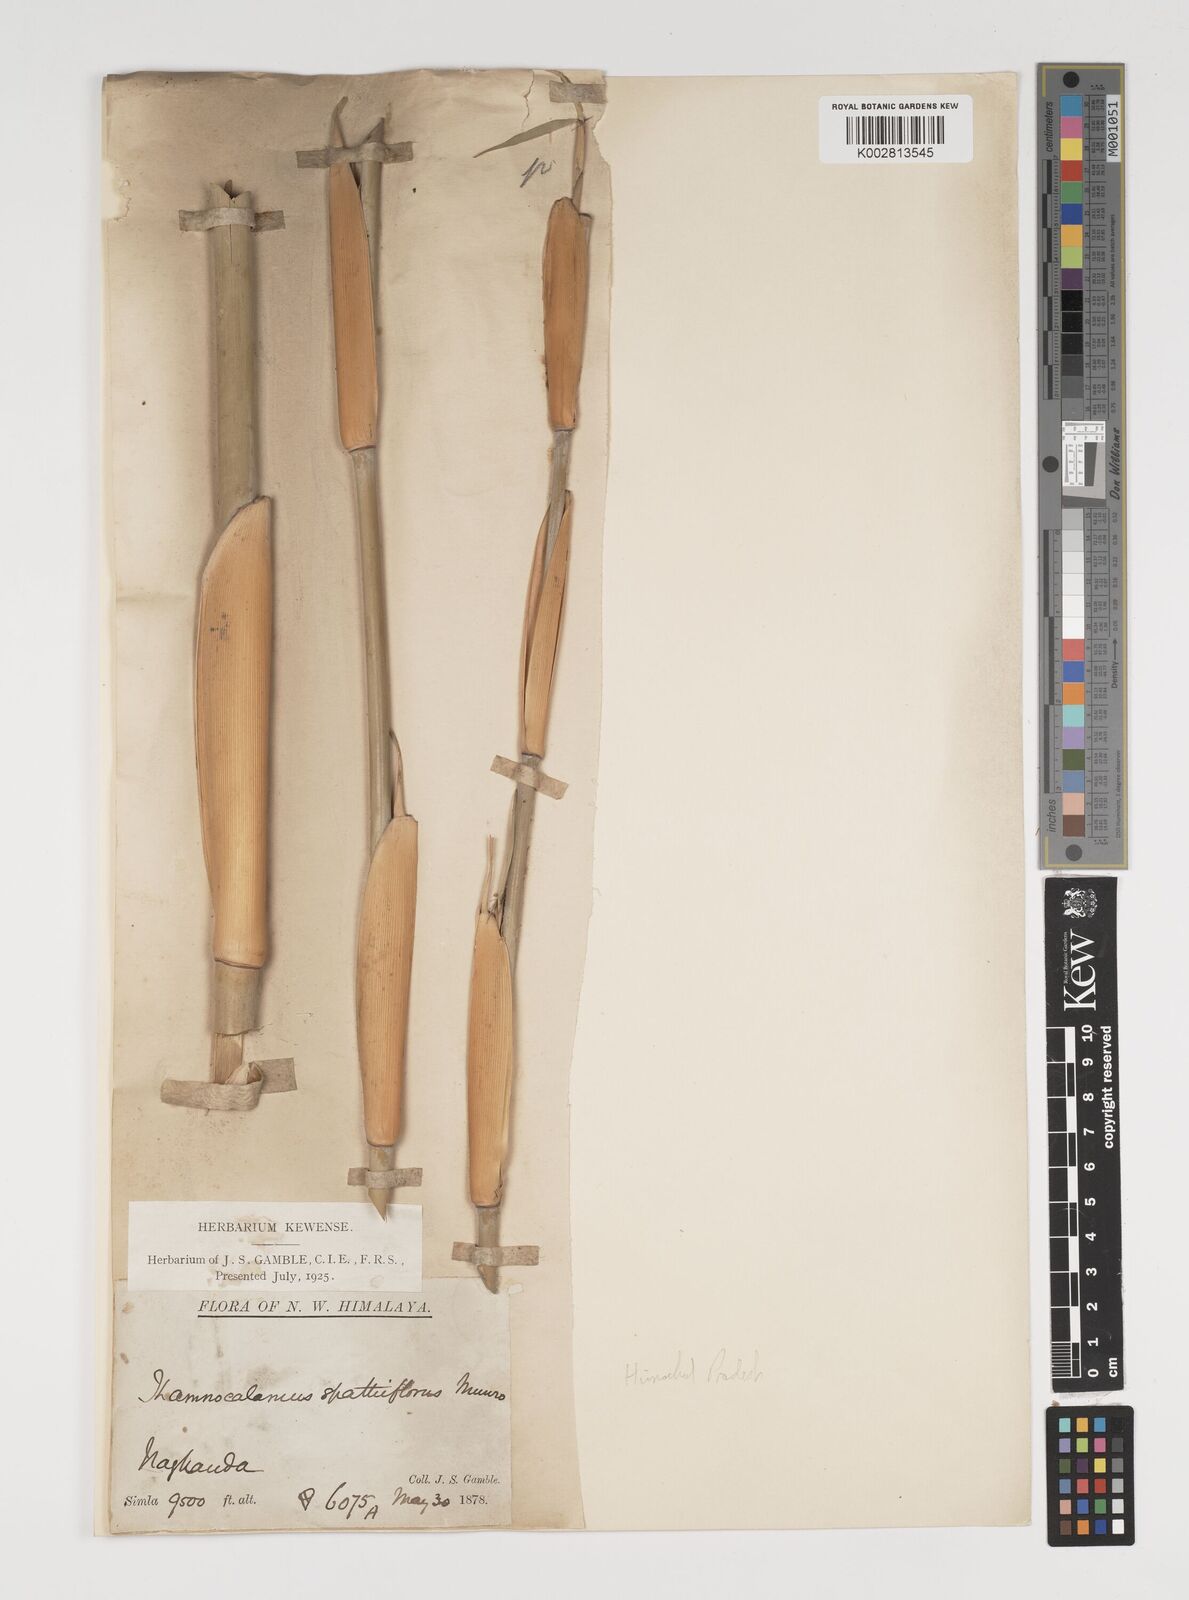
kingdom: Plantae
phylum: Tracheophyta
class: Liliopsida
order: Poales
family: Poaceae
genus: Thamnocalamus
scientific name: Thamnocalamus spathiflorus
